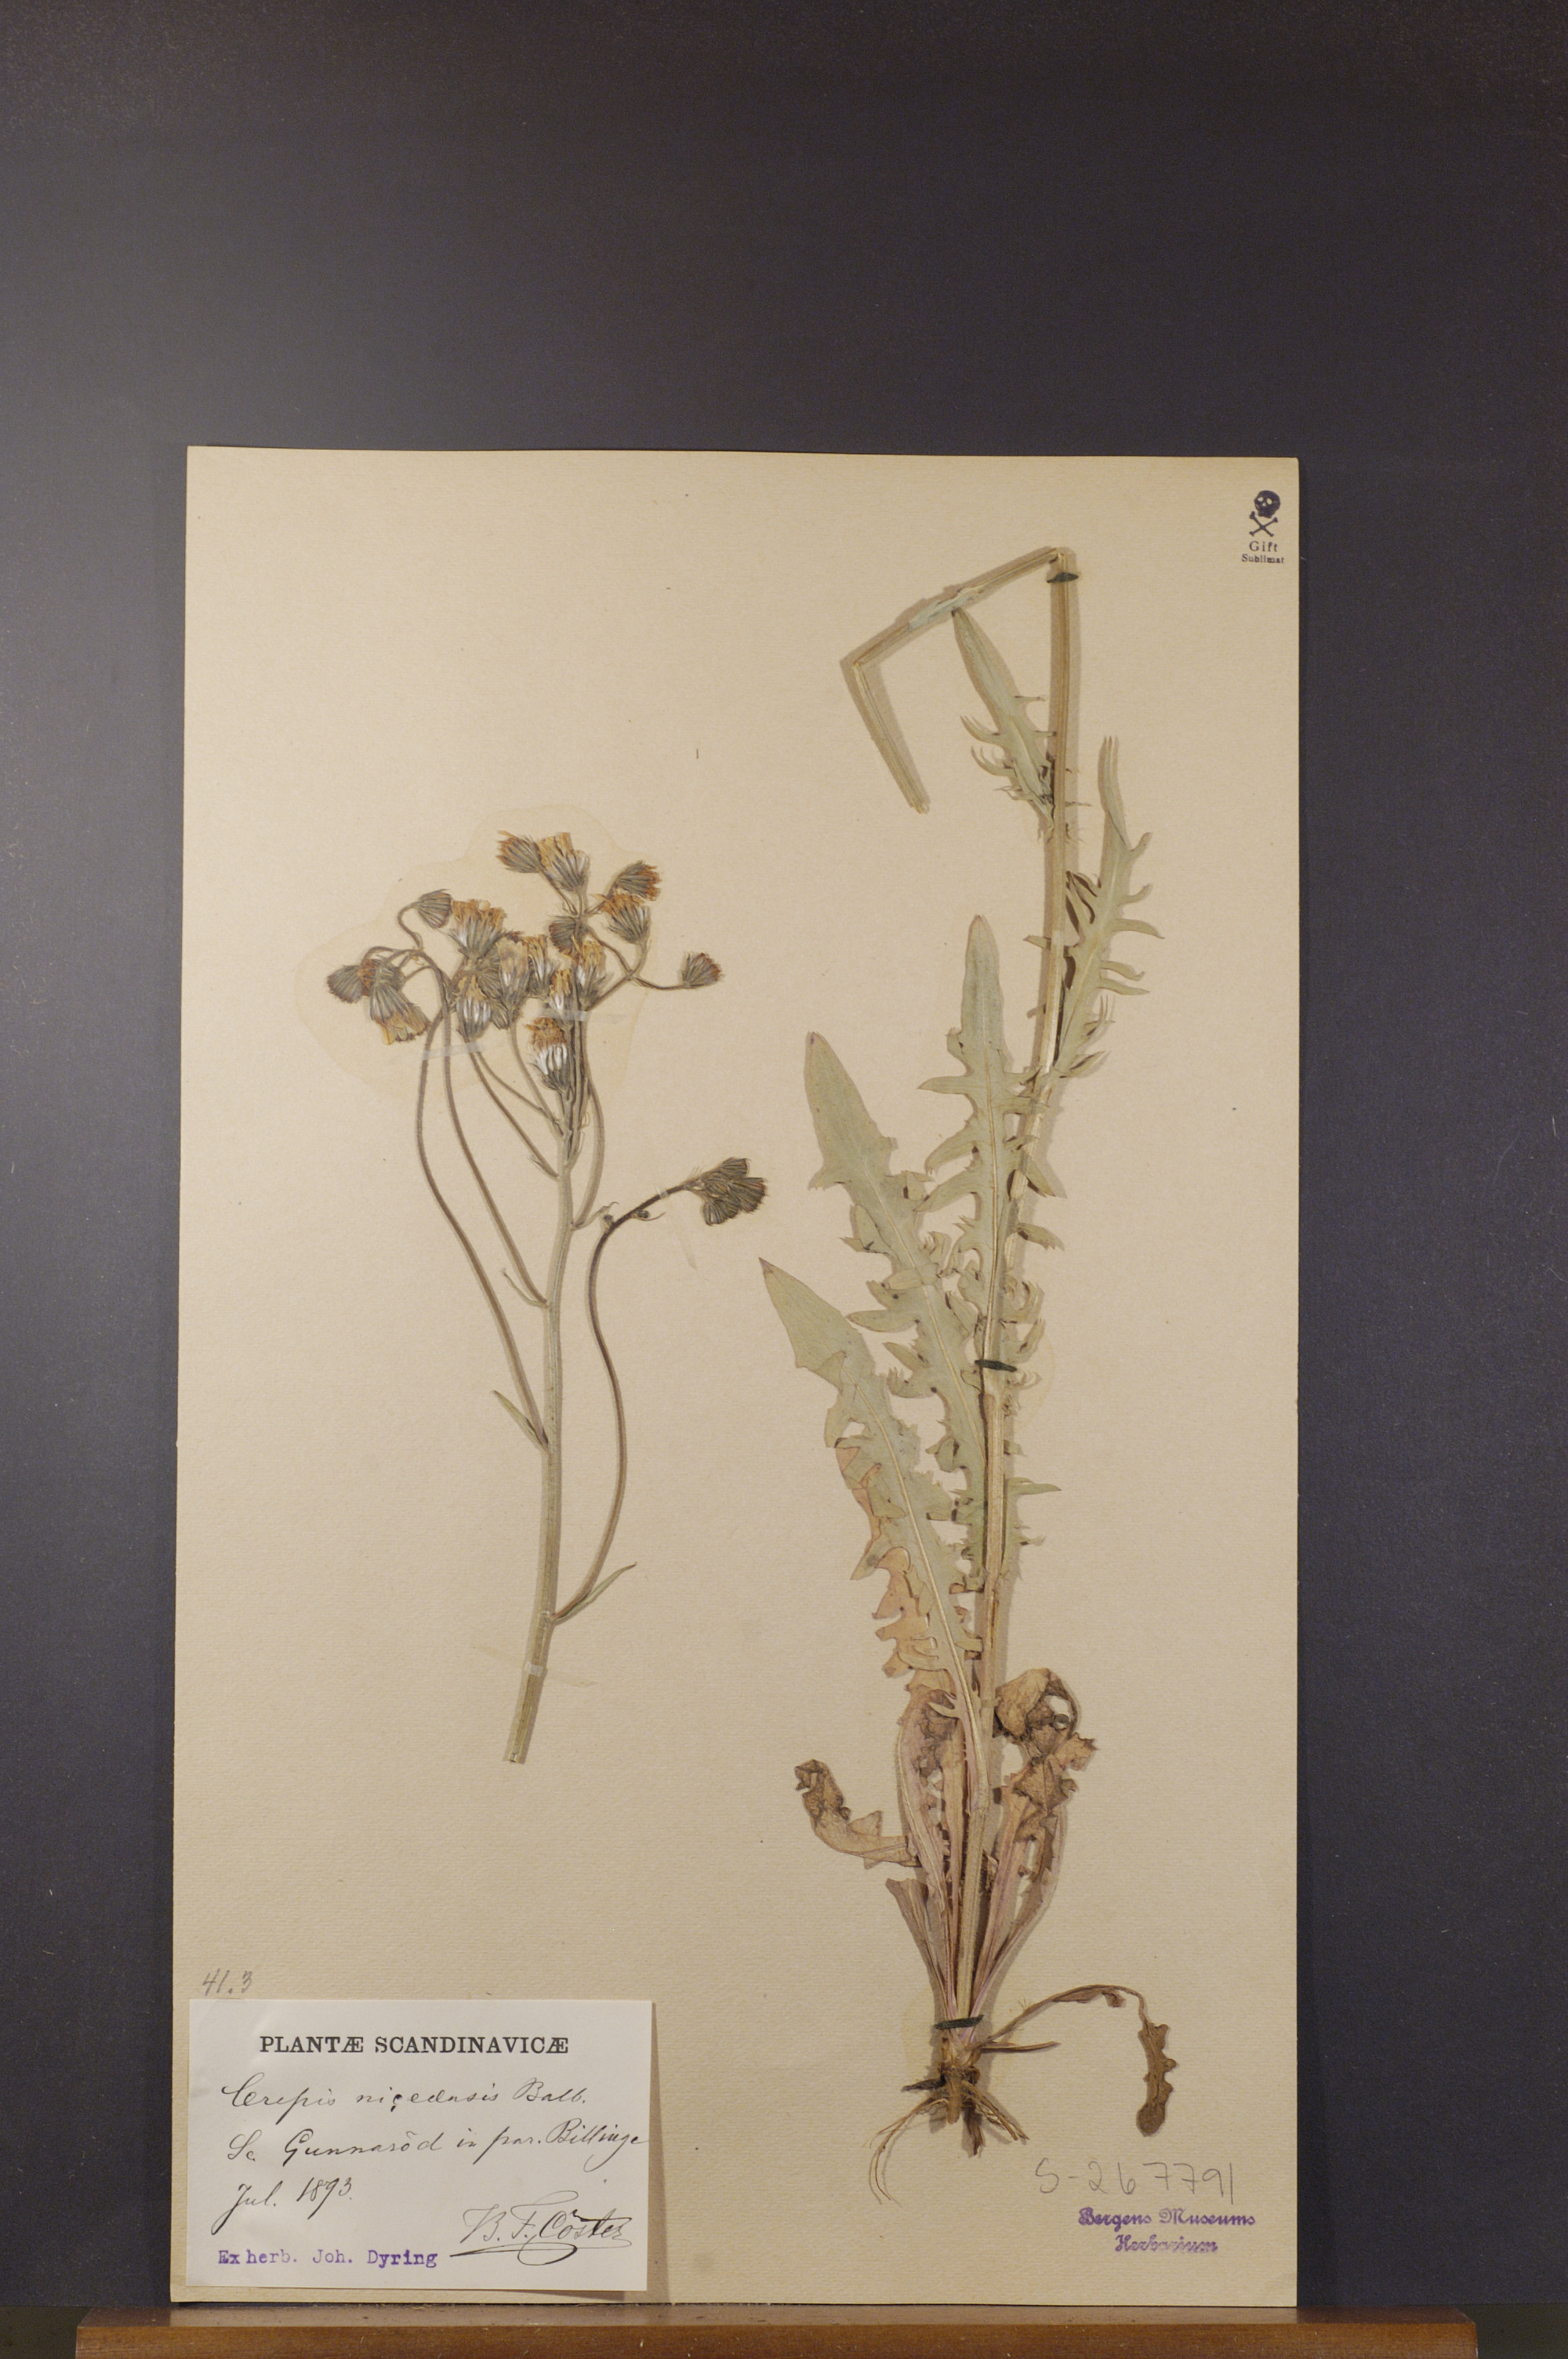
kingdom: Plantae
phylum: Tracheophyta
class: Magnoliopsida
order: Asterales
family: Asteraceae
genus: Crepis
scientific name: Crepis nicaeensis
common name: Turkish hawksbeard
